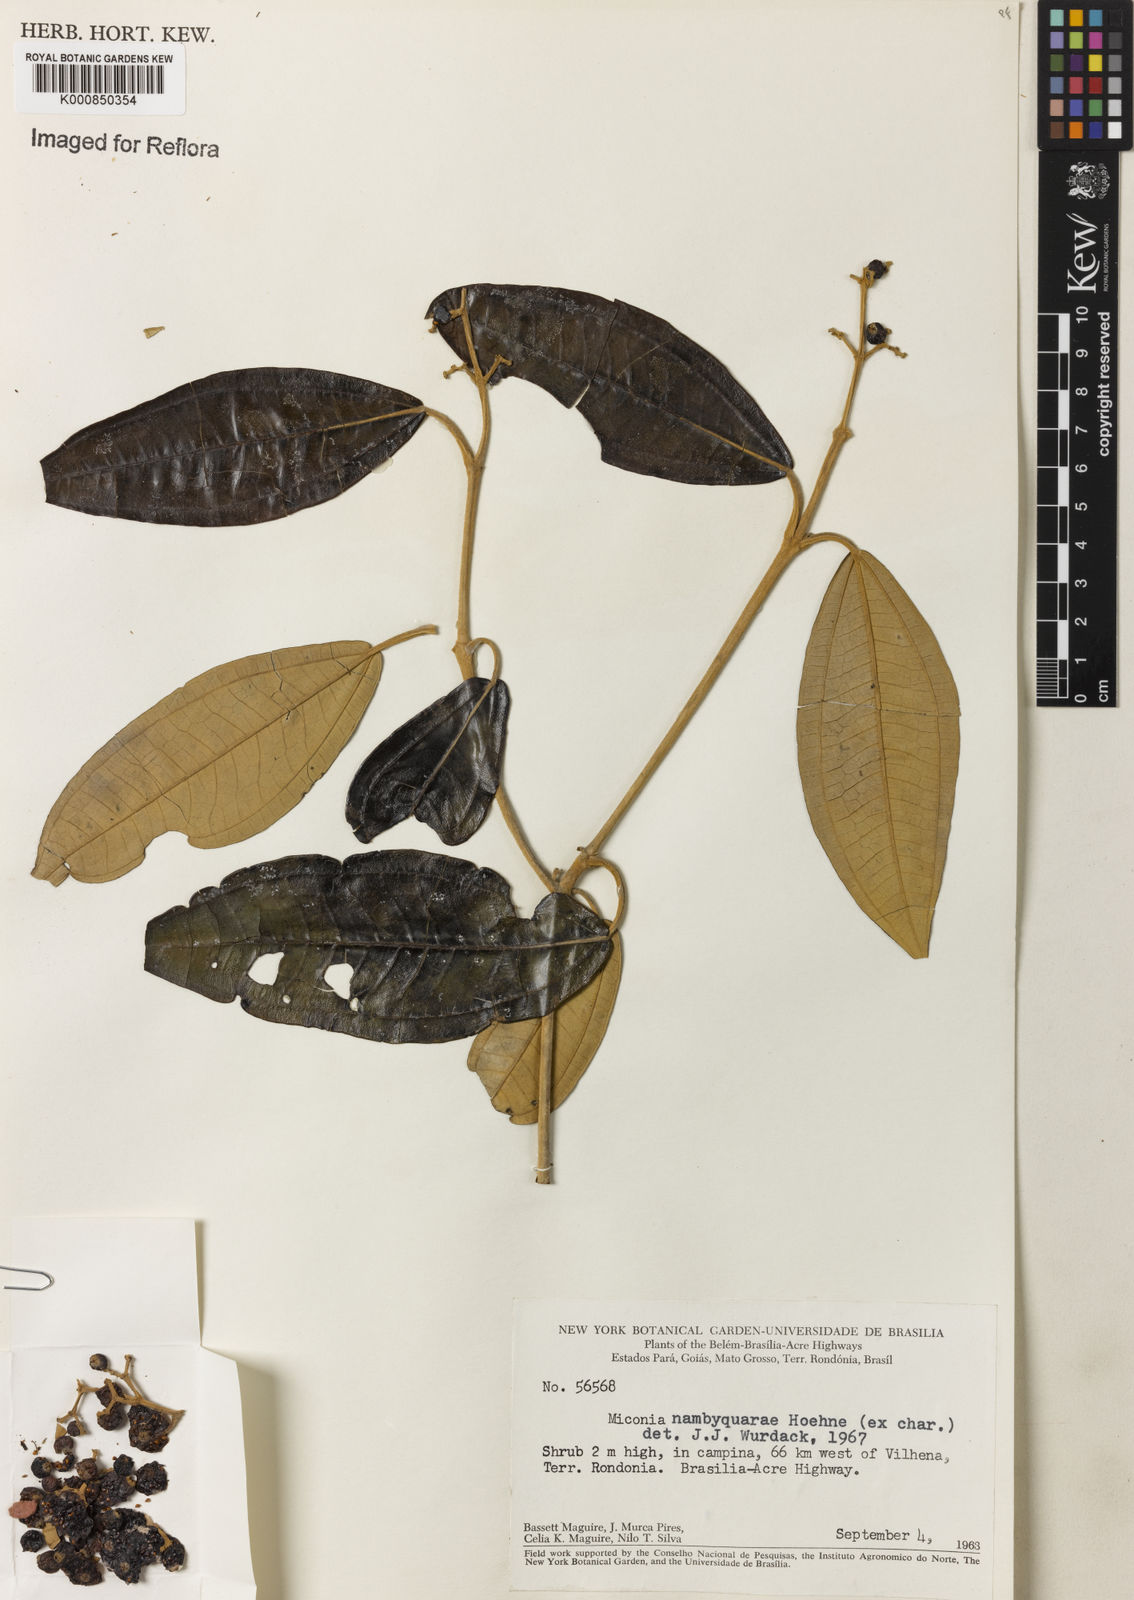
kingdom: Plantae
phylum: Tracheophyta
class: Magnoliopsida
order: Myrtales
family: Melastomataceae
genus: Miconia
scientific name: Miconia nambyquarae
